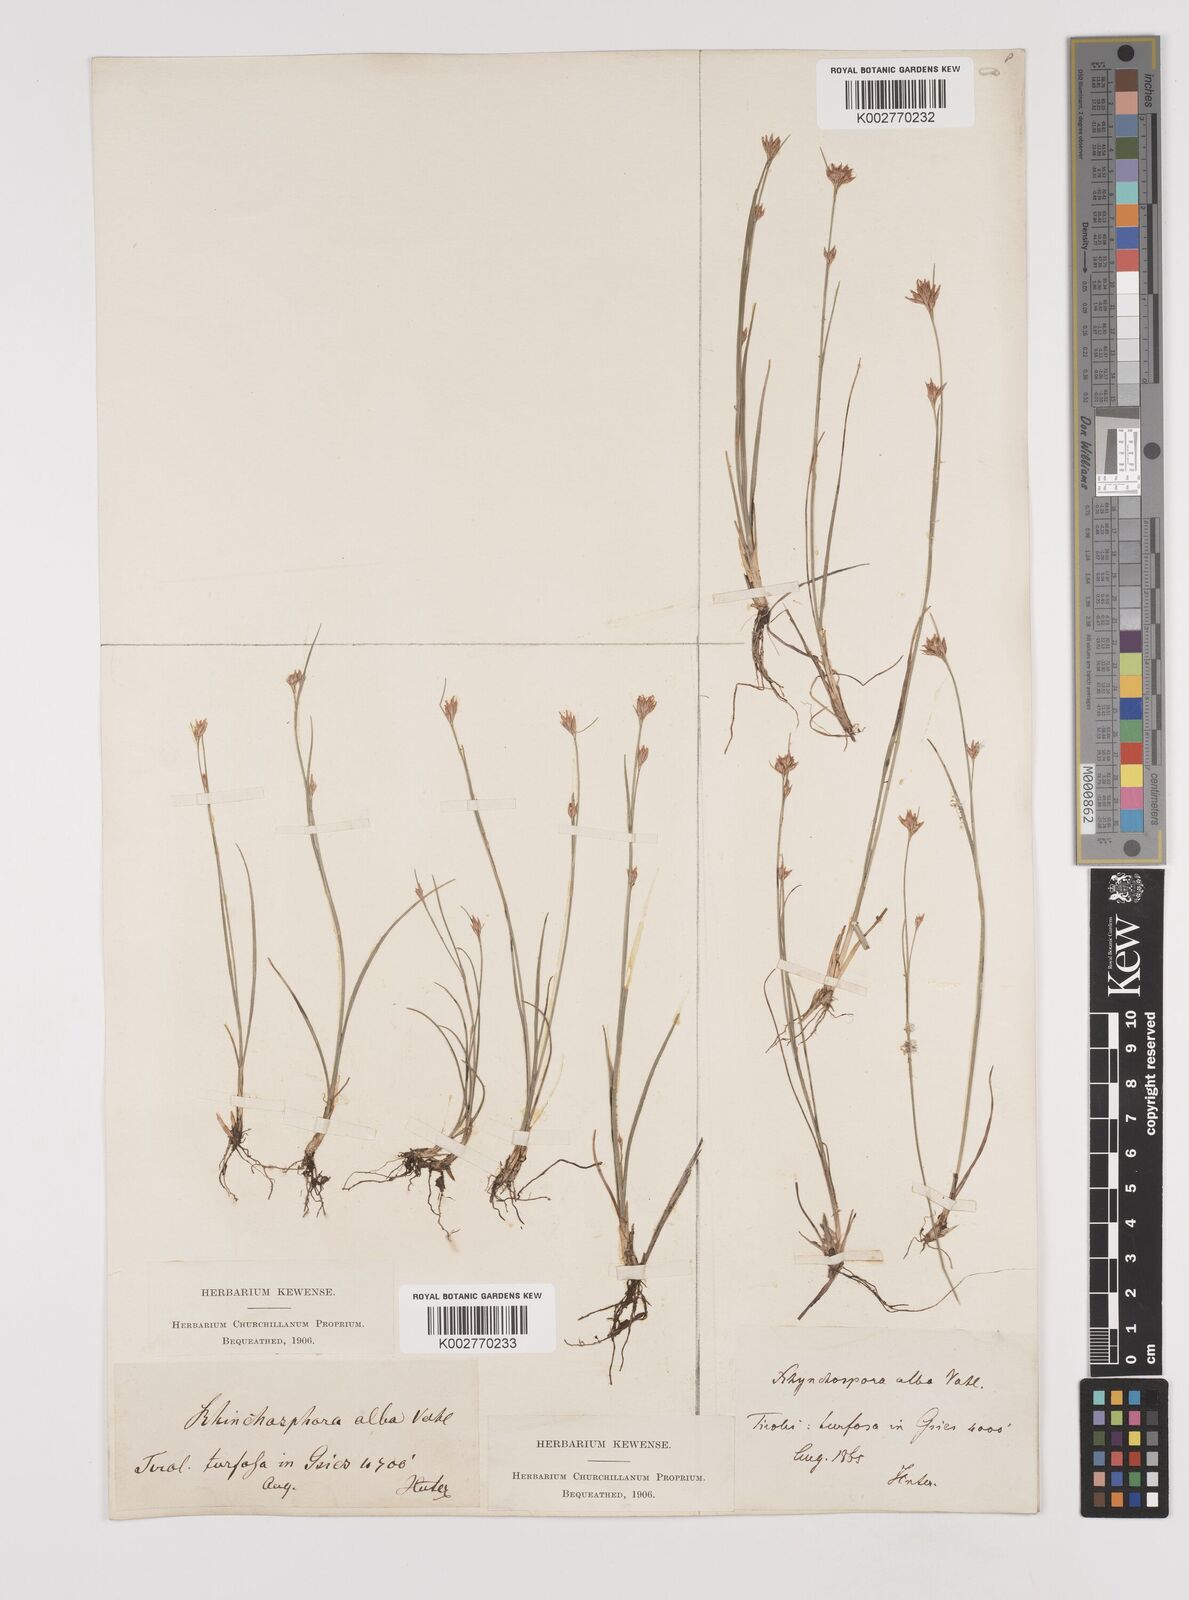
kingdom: Plantae
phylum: Tracheophyta
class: Liliopsida
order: Poales
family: Cyperaceae
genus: Rhynchospora
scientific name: Rhynchospora alba
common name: White beak-sedge
